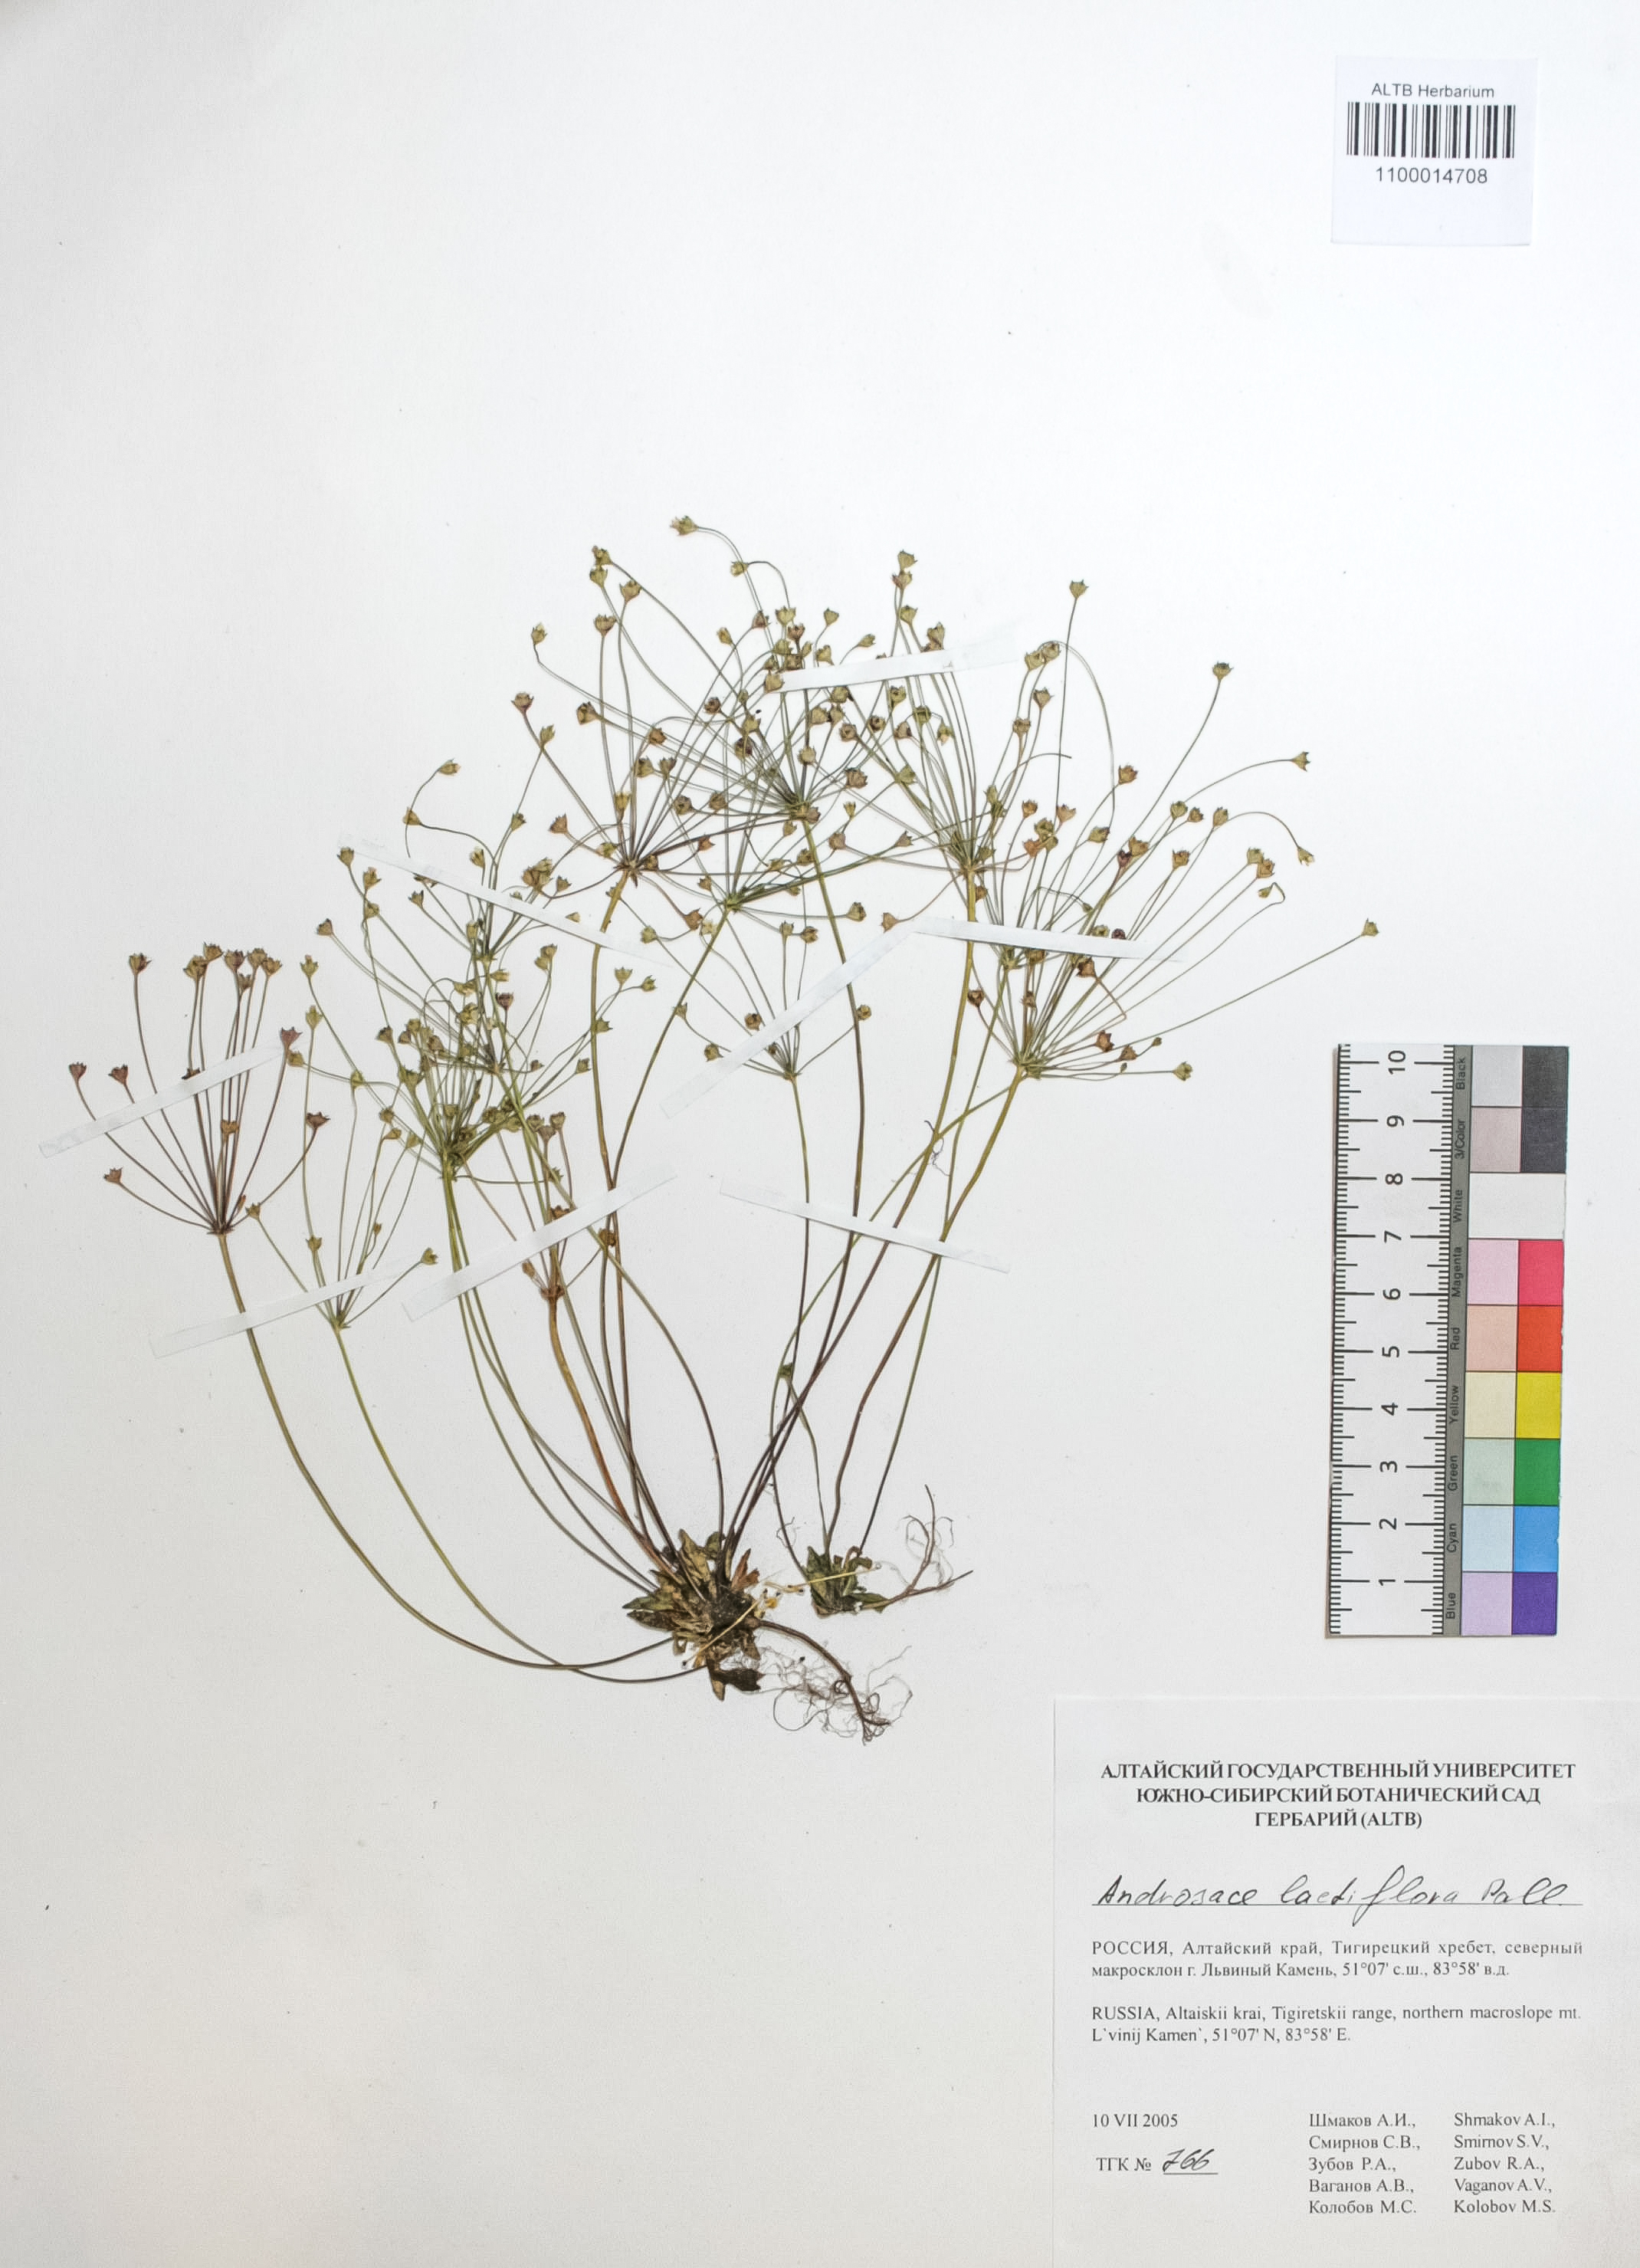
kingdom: Plantae
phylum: Tracheophyta
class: Magnoliopsida
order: Ericales
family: Primulaceae
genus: Androsace
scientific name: Androsace lactiflora
